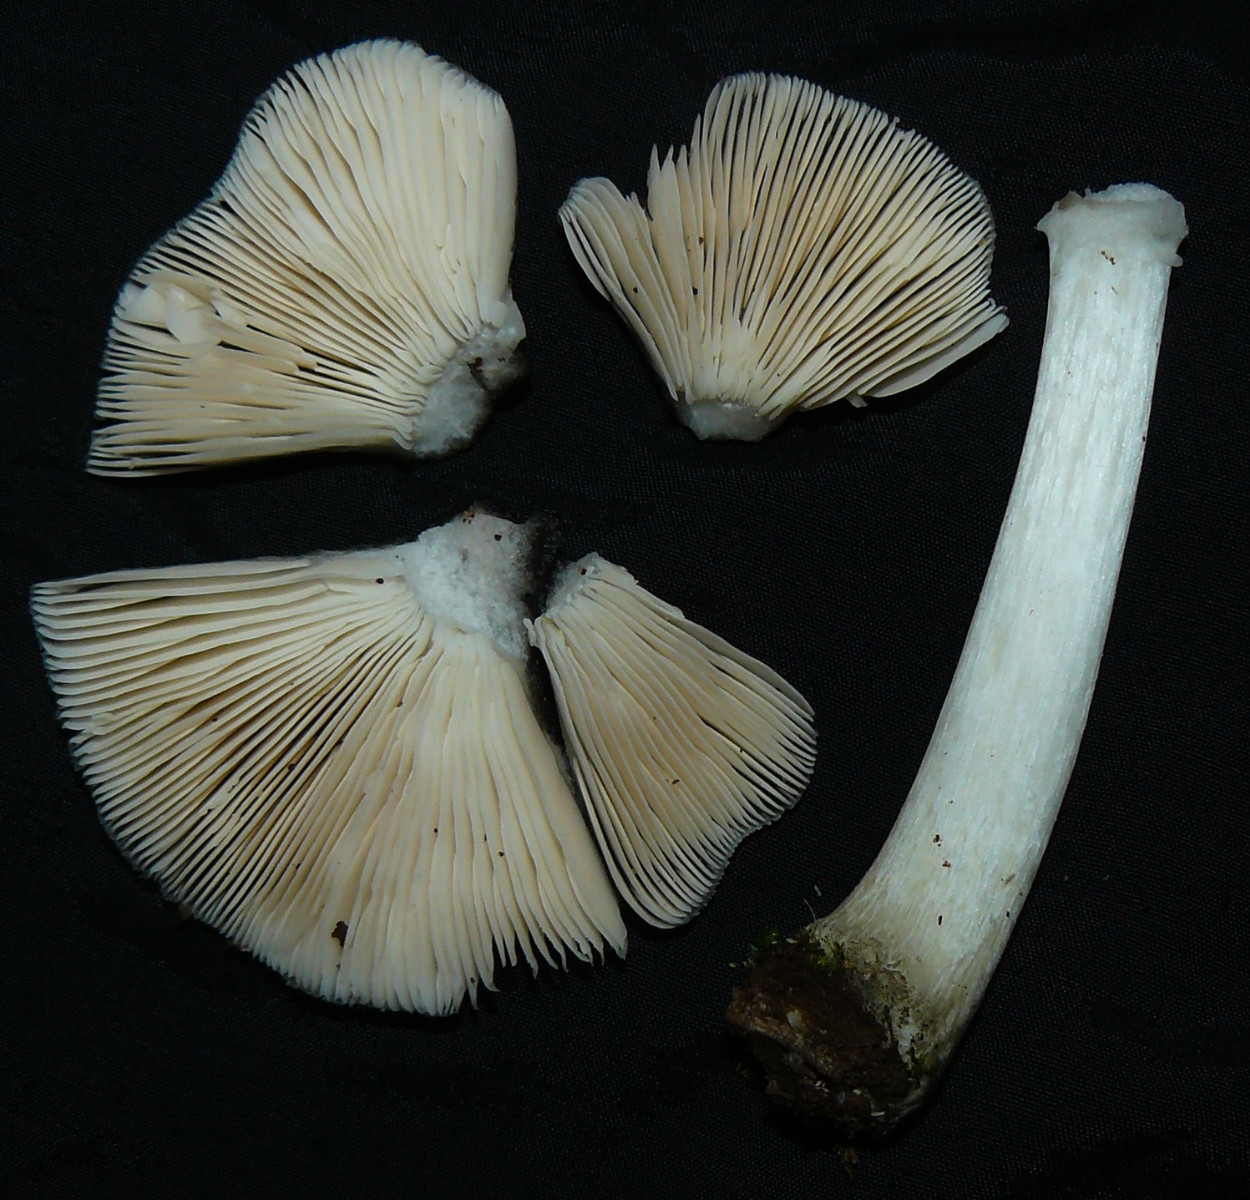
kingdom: Fungi
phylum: Basidiomycota
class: Agaricomycetes
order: Agaricales
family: Pluteaceae
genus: Pluteus
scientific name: Pluteus salicinus
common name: stiv skærmhat
